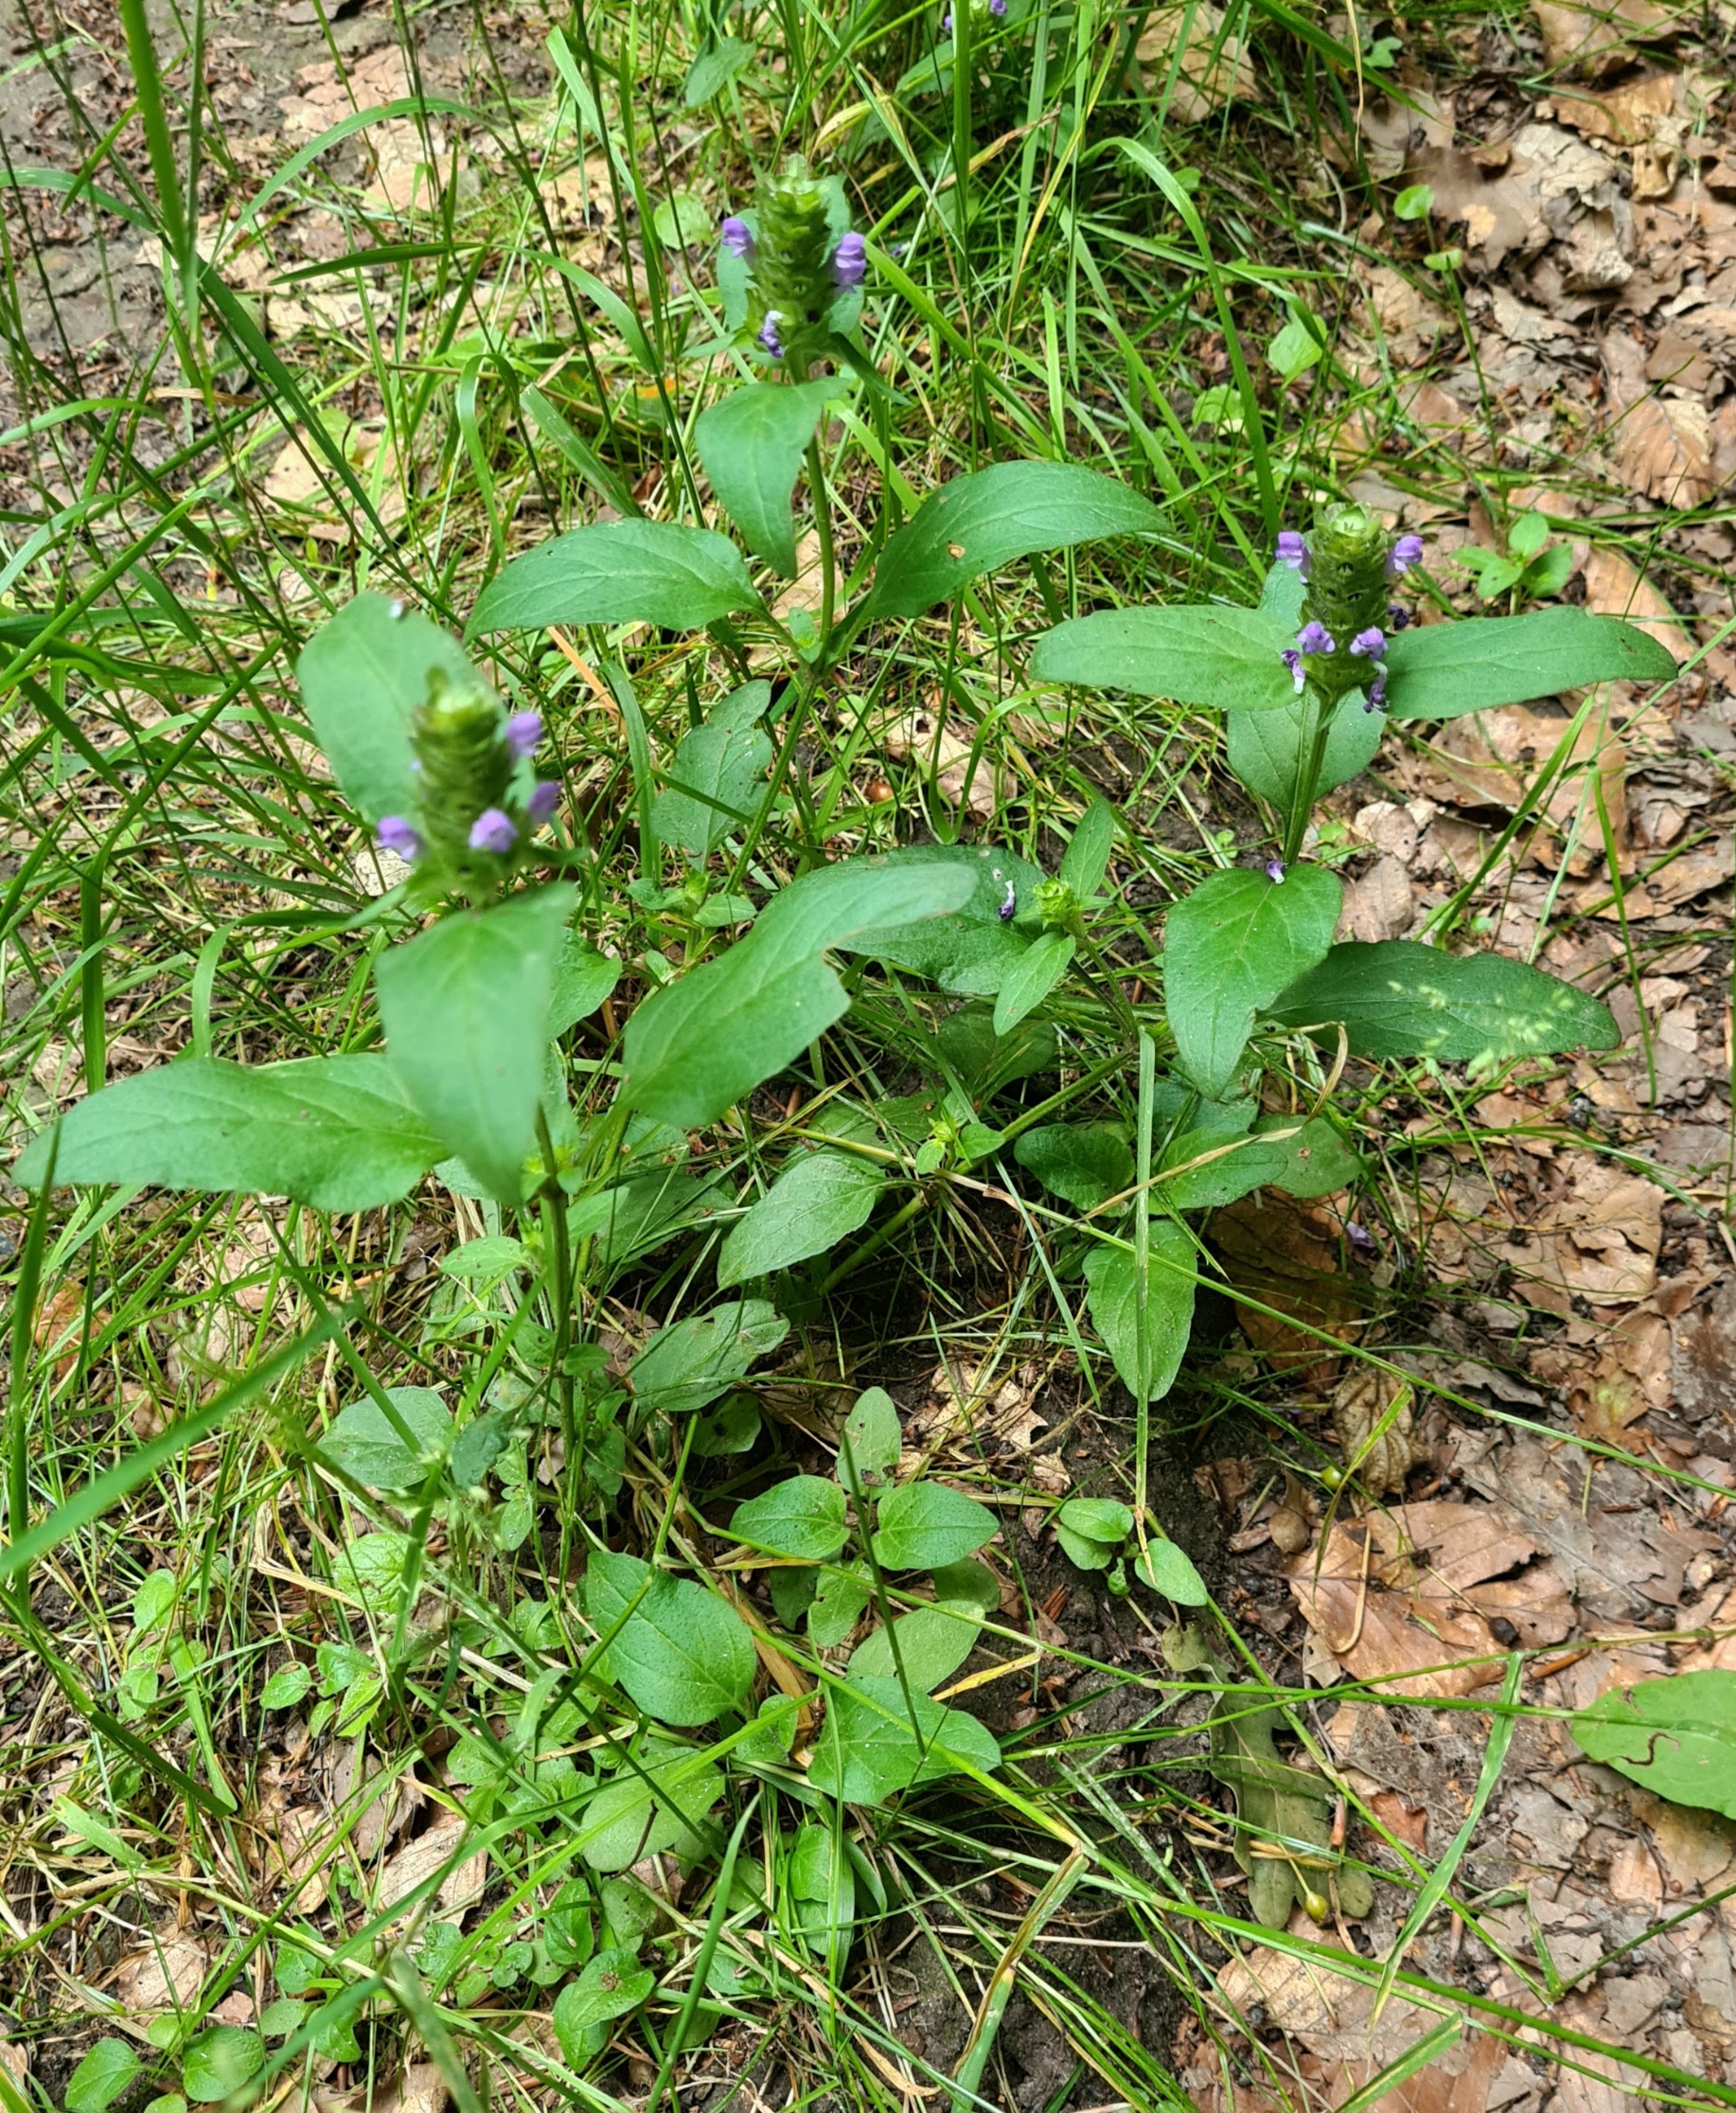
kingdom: Plantae
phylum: Tracheophyta
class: Magnoliopsida
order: Lamiales
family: Lamiaceae
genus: Prunella
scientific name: Prunella vulgaris
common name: Almindelig brunelle
